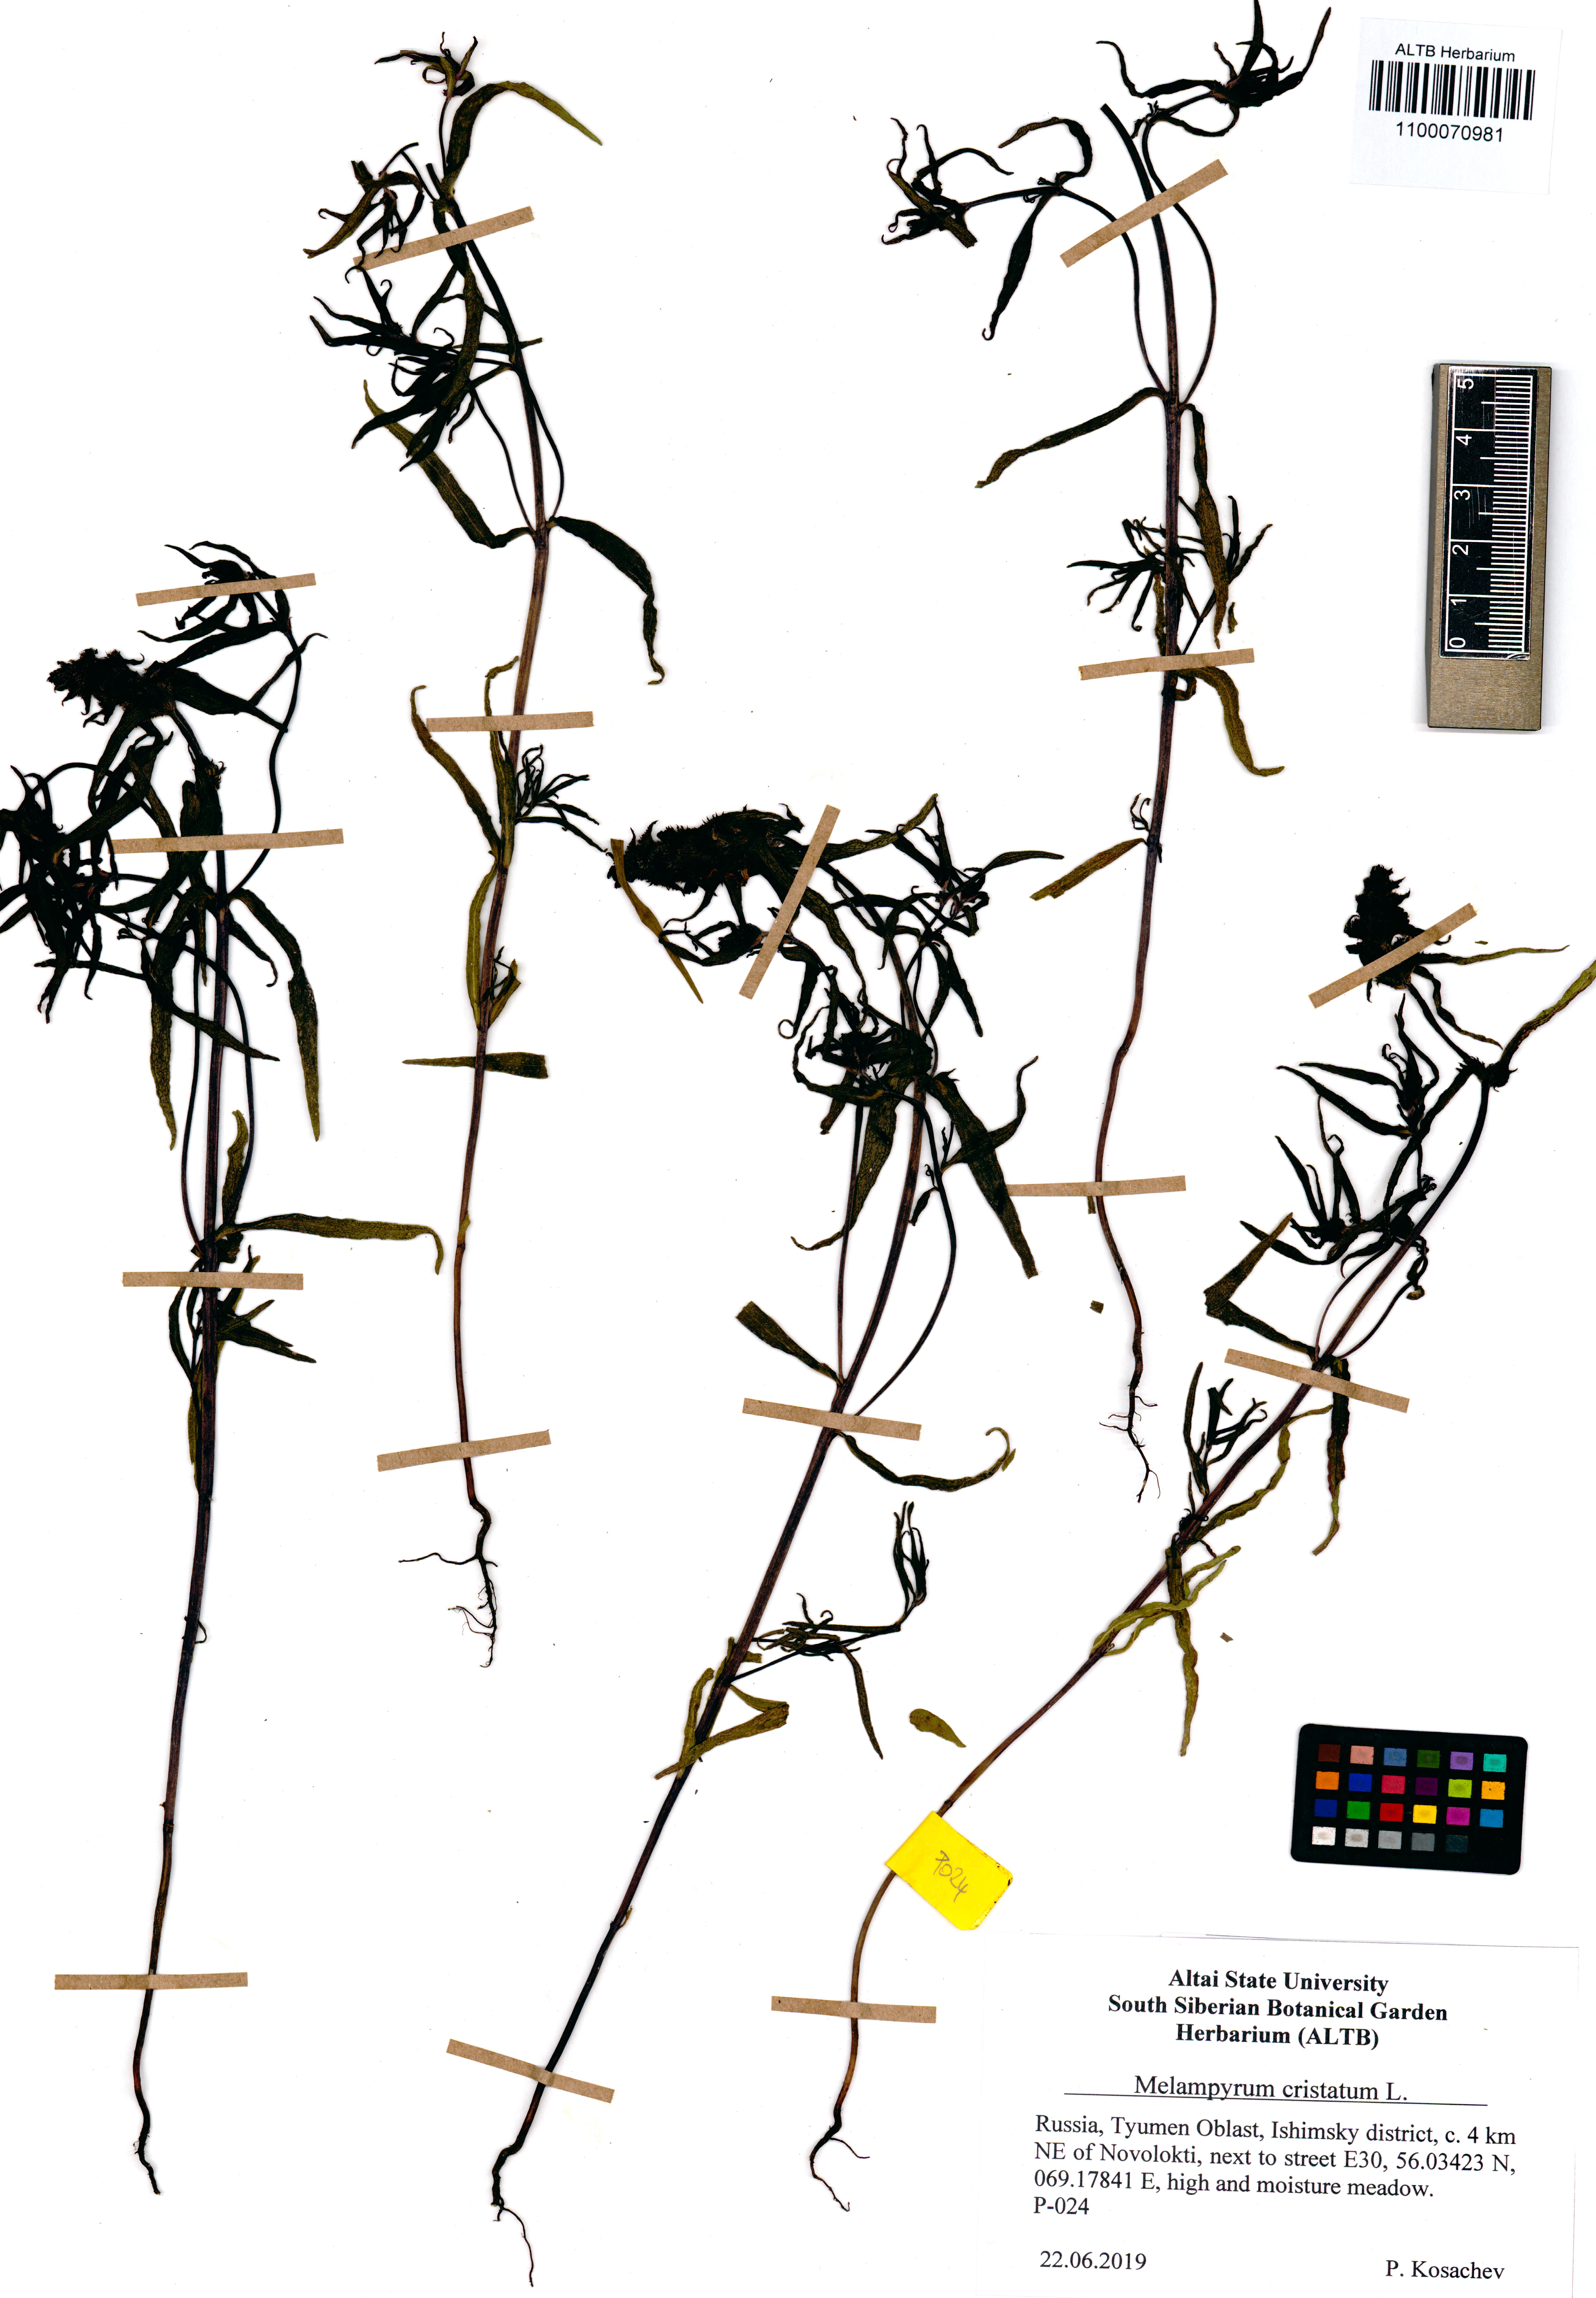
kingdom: Plantae
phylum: Tracheophyta
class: Magnoliopsida
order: Lamiales
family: Orobanchaceae
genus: Melampyrum
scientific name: Melampyrum cristatum
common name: Crested cow-wheat
